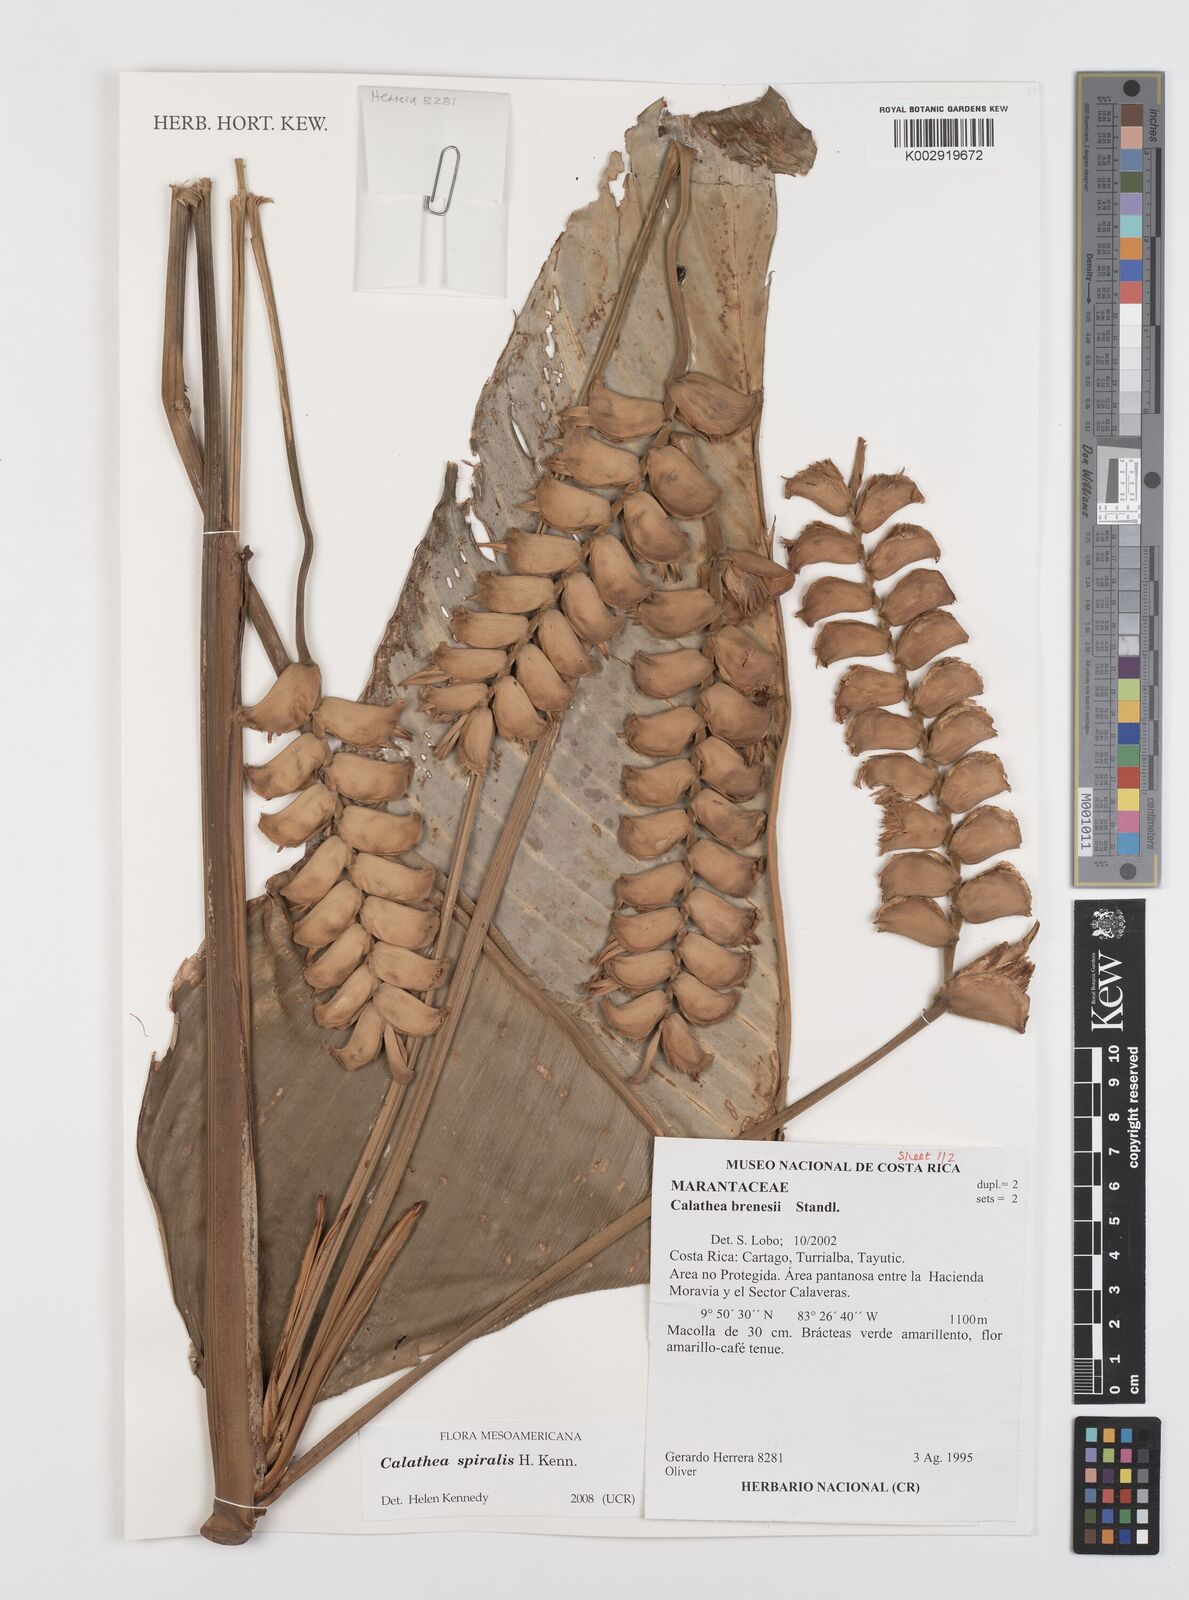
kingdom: Plantae
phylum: Tracheophyta
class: Liliopsida
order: Zingiberales
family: Marantaceae
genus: Calathea
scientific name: Calathea spiralis
